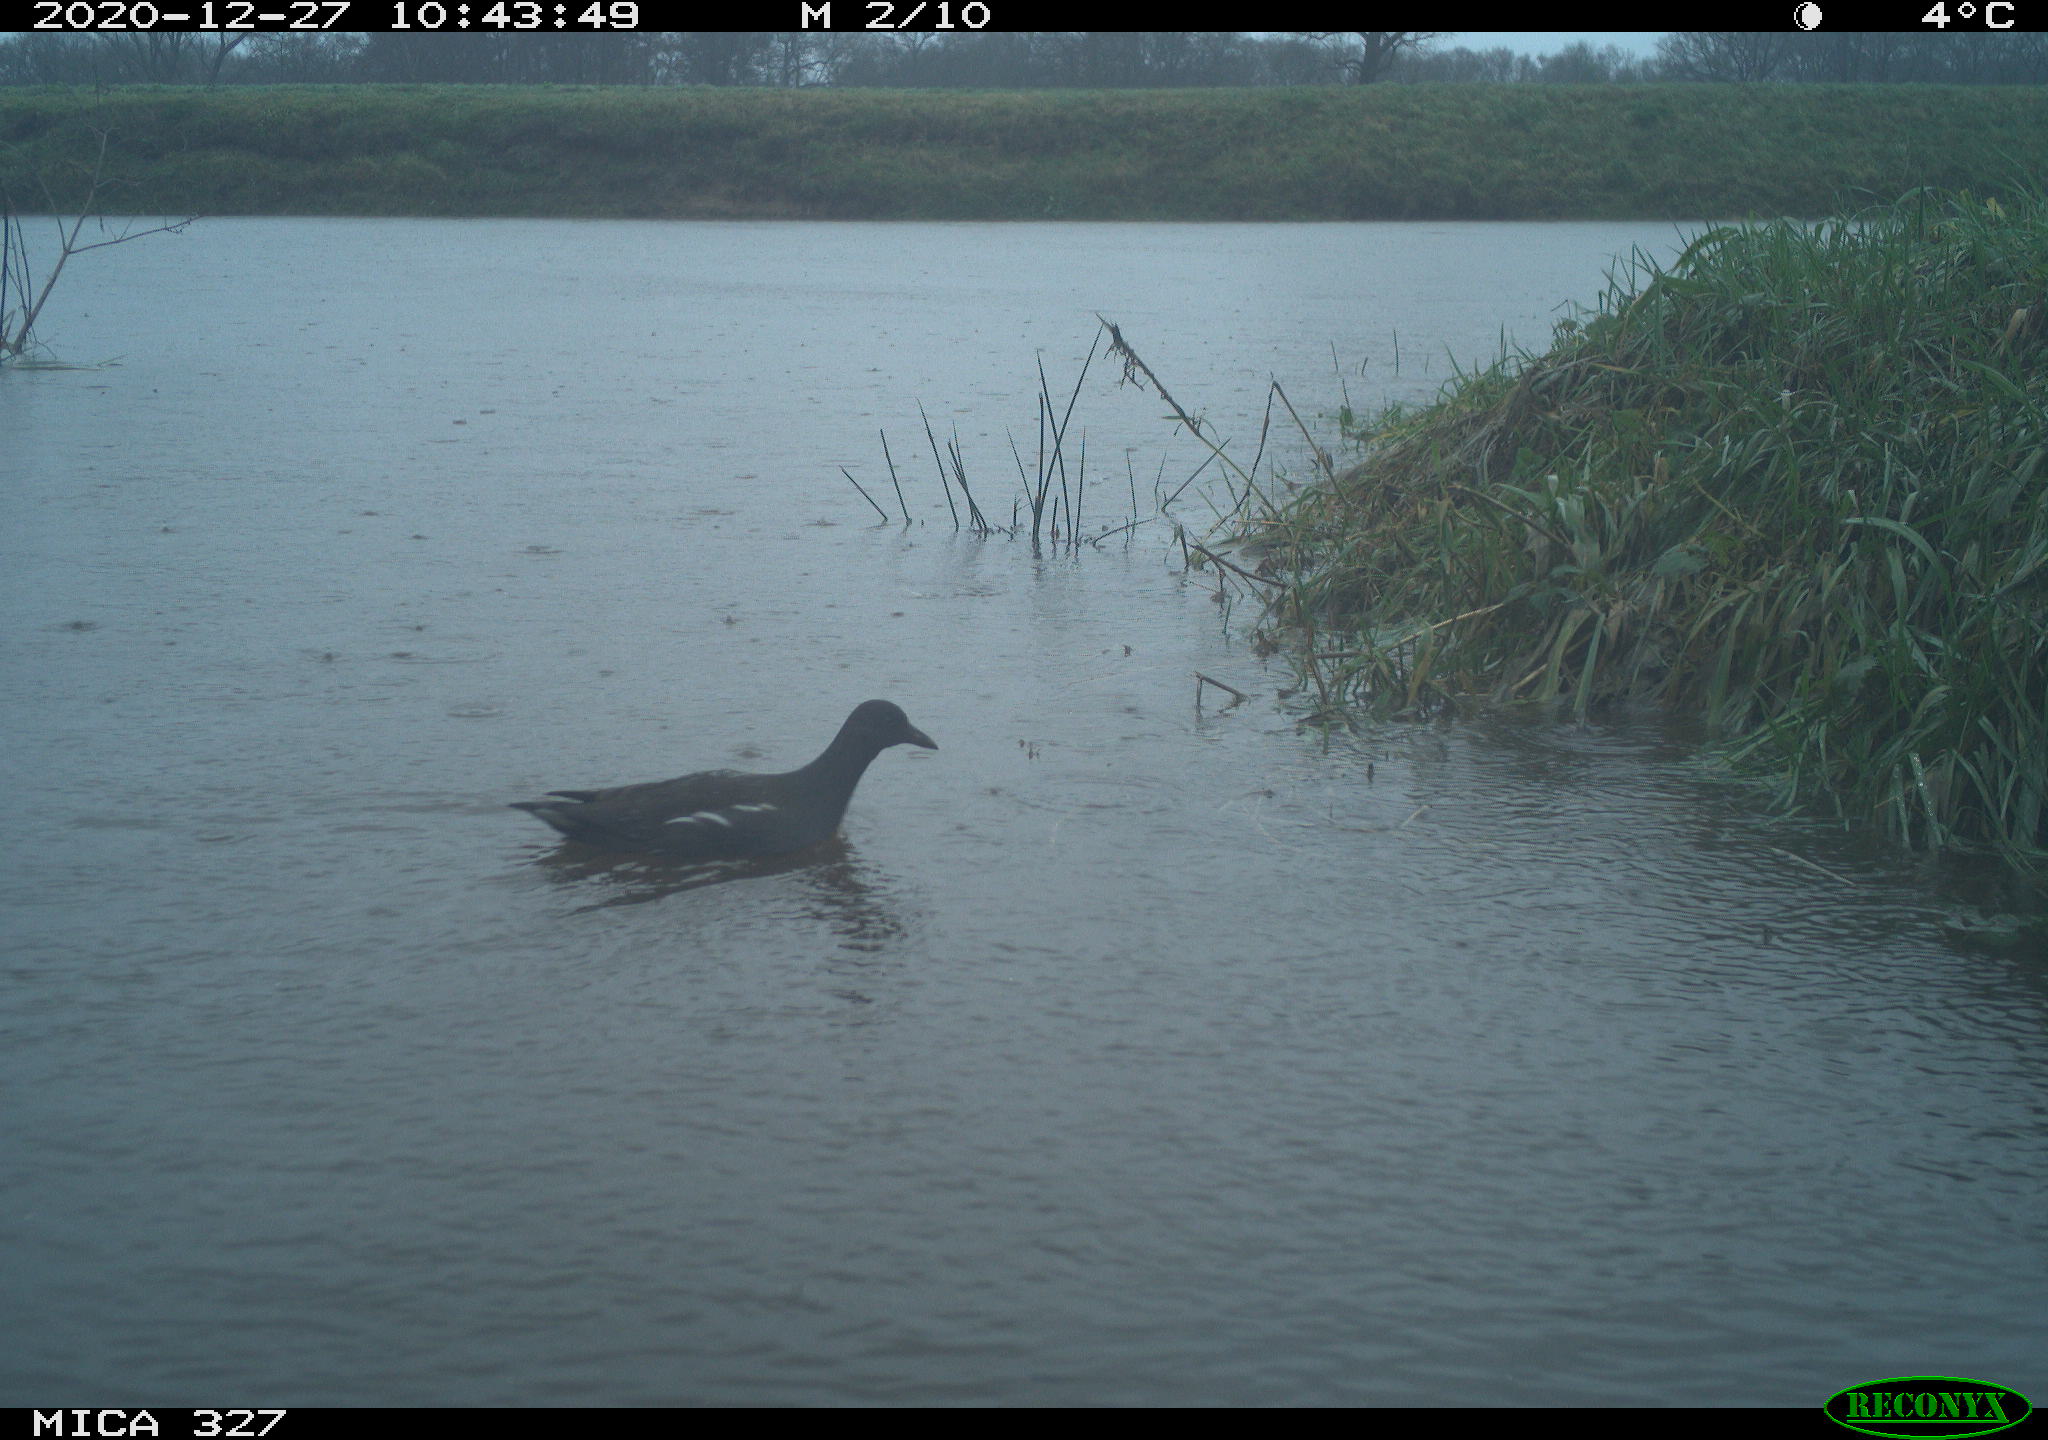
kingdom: Animalia
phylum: Chordata
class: Aves
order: Gruiformes
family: Rallidae
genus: Gallinula
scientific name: Gallinula chloropus
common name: Common moorhen
